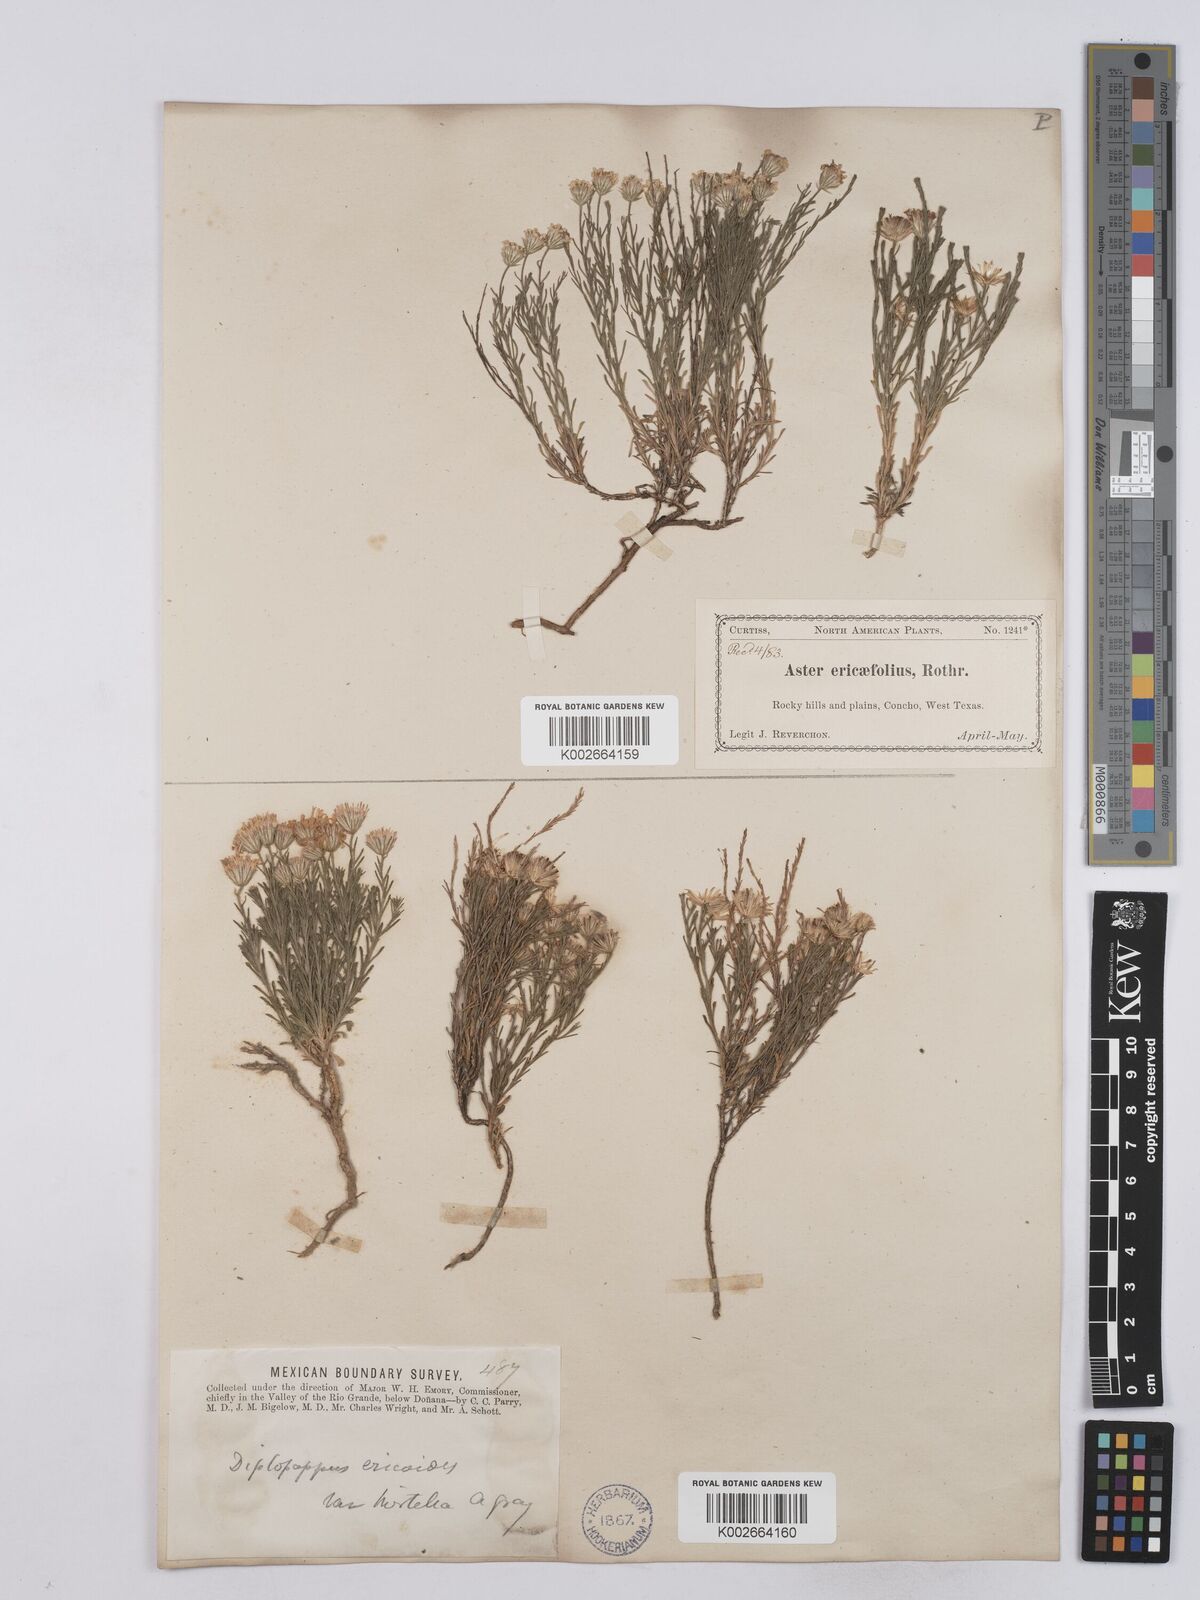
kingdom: Plantae
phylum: Tracheophyta
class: Magnoliopsida
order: Asterales
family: Asteraceae
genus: Chaetopappa
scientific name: Chaetopappa ericoides
